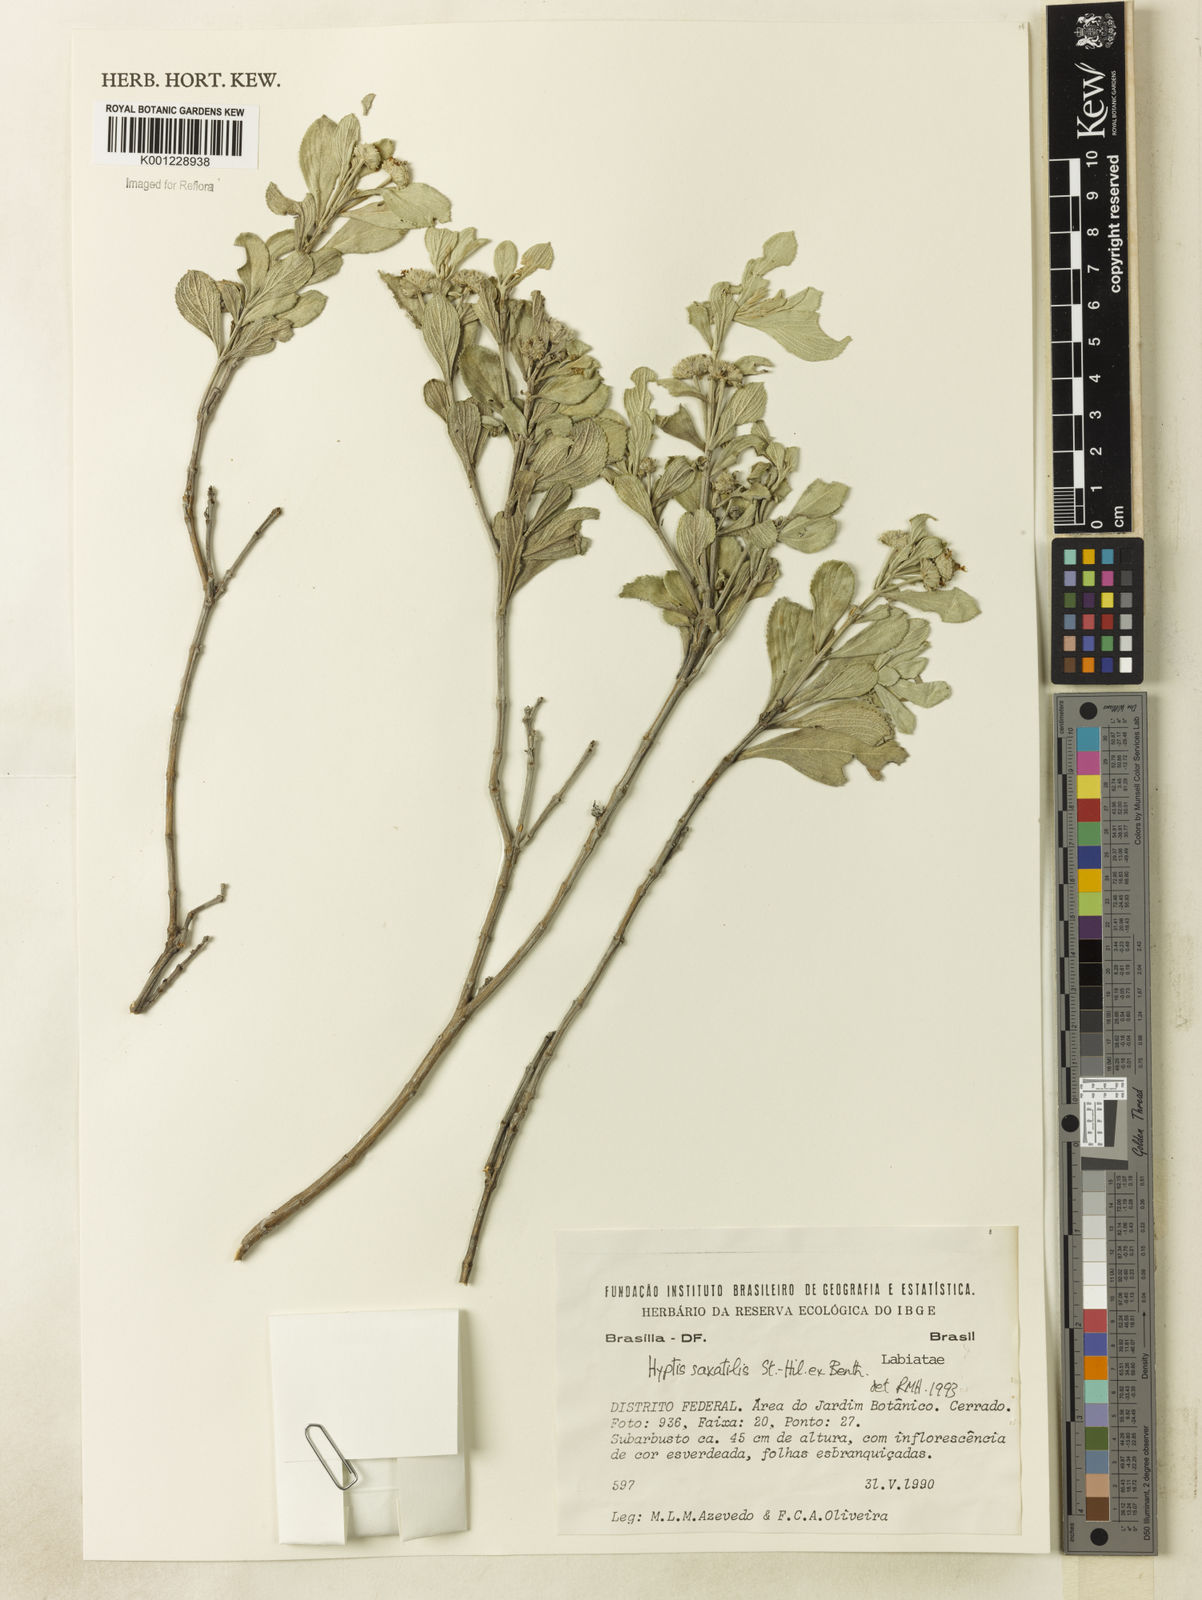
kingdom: Plantae
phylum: Tracheophyta
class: Magnoliopsida
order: Lamiales
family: Lamiaceae
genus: Hyptis
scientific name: Hyptis saxatilis
